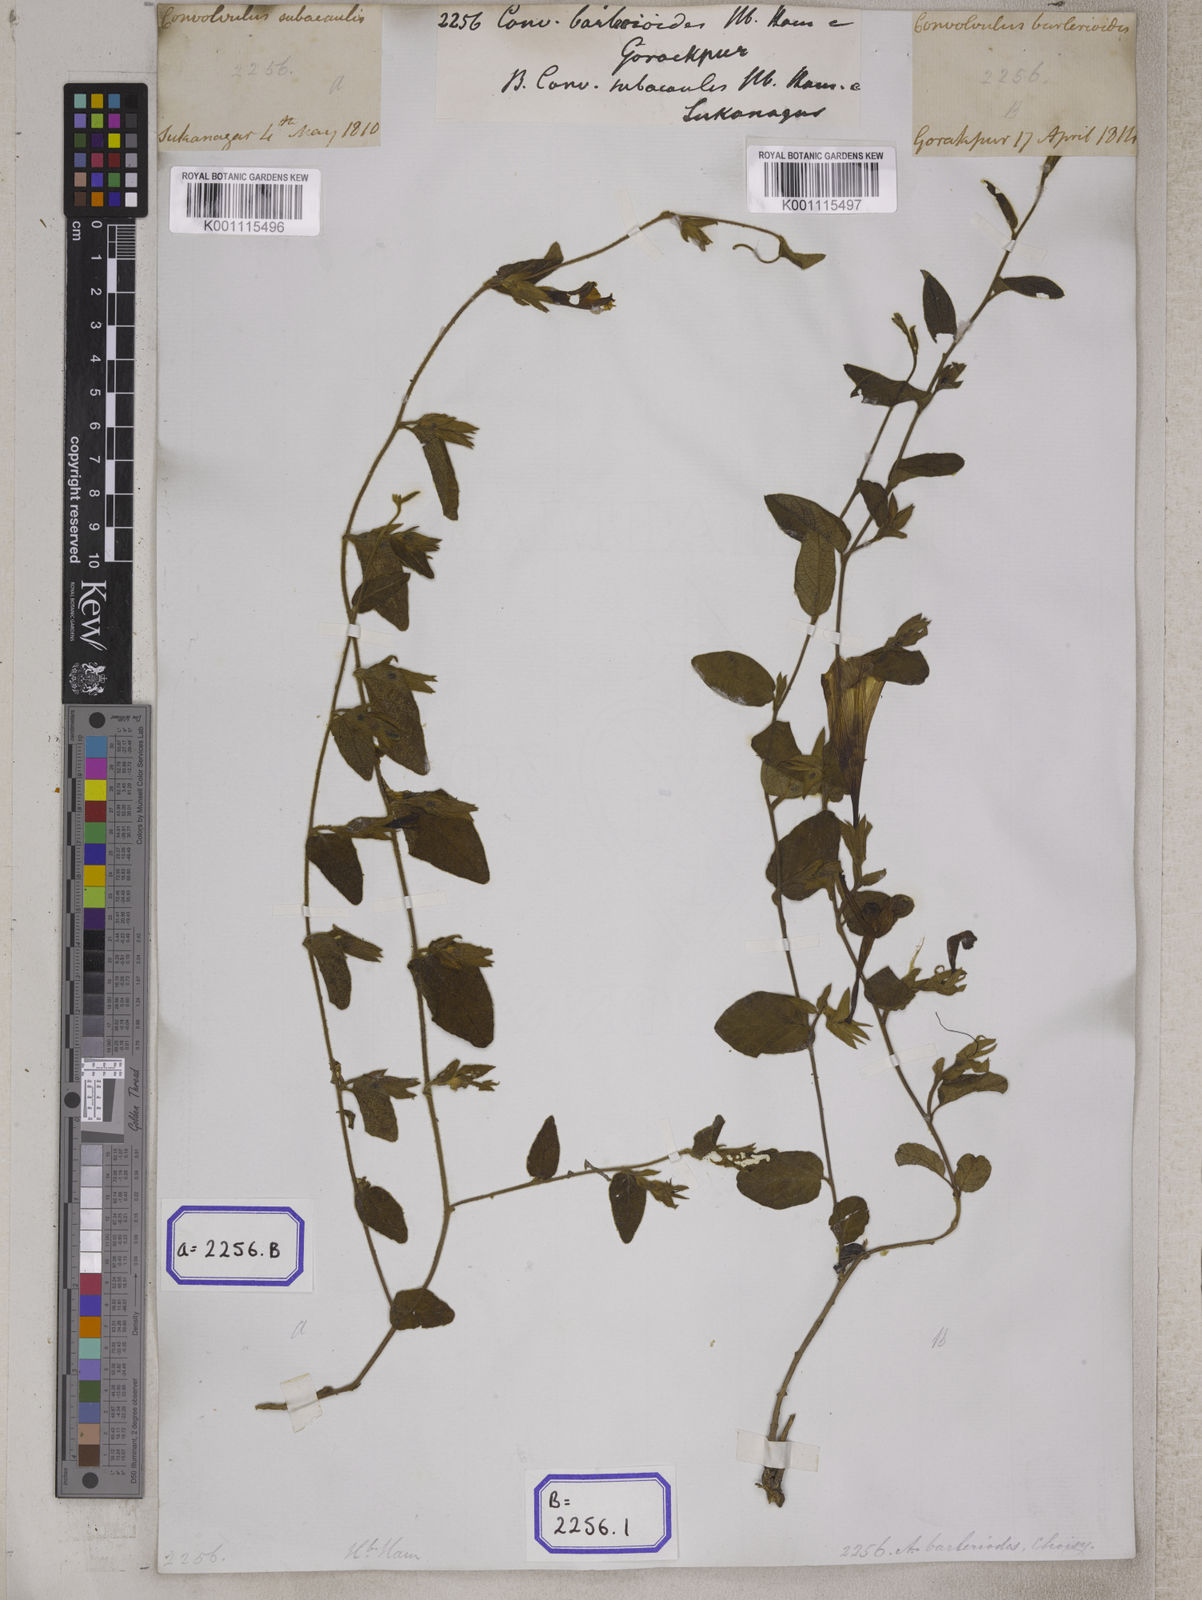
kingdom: Plantae
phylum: Tracheophyta
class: Magnoliopsida
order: Solanales
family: Convolvulaceae
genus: Ipomoea
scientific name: Ipomoea barlerioides
